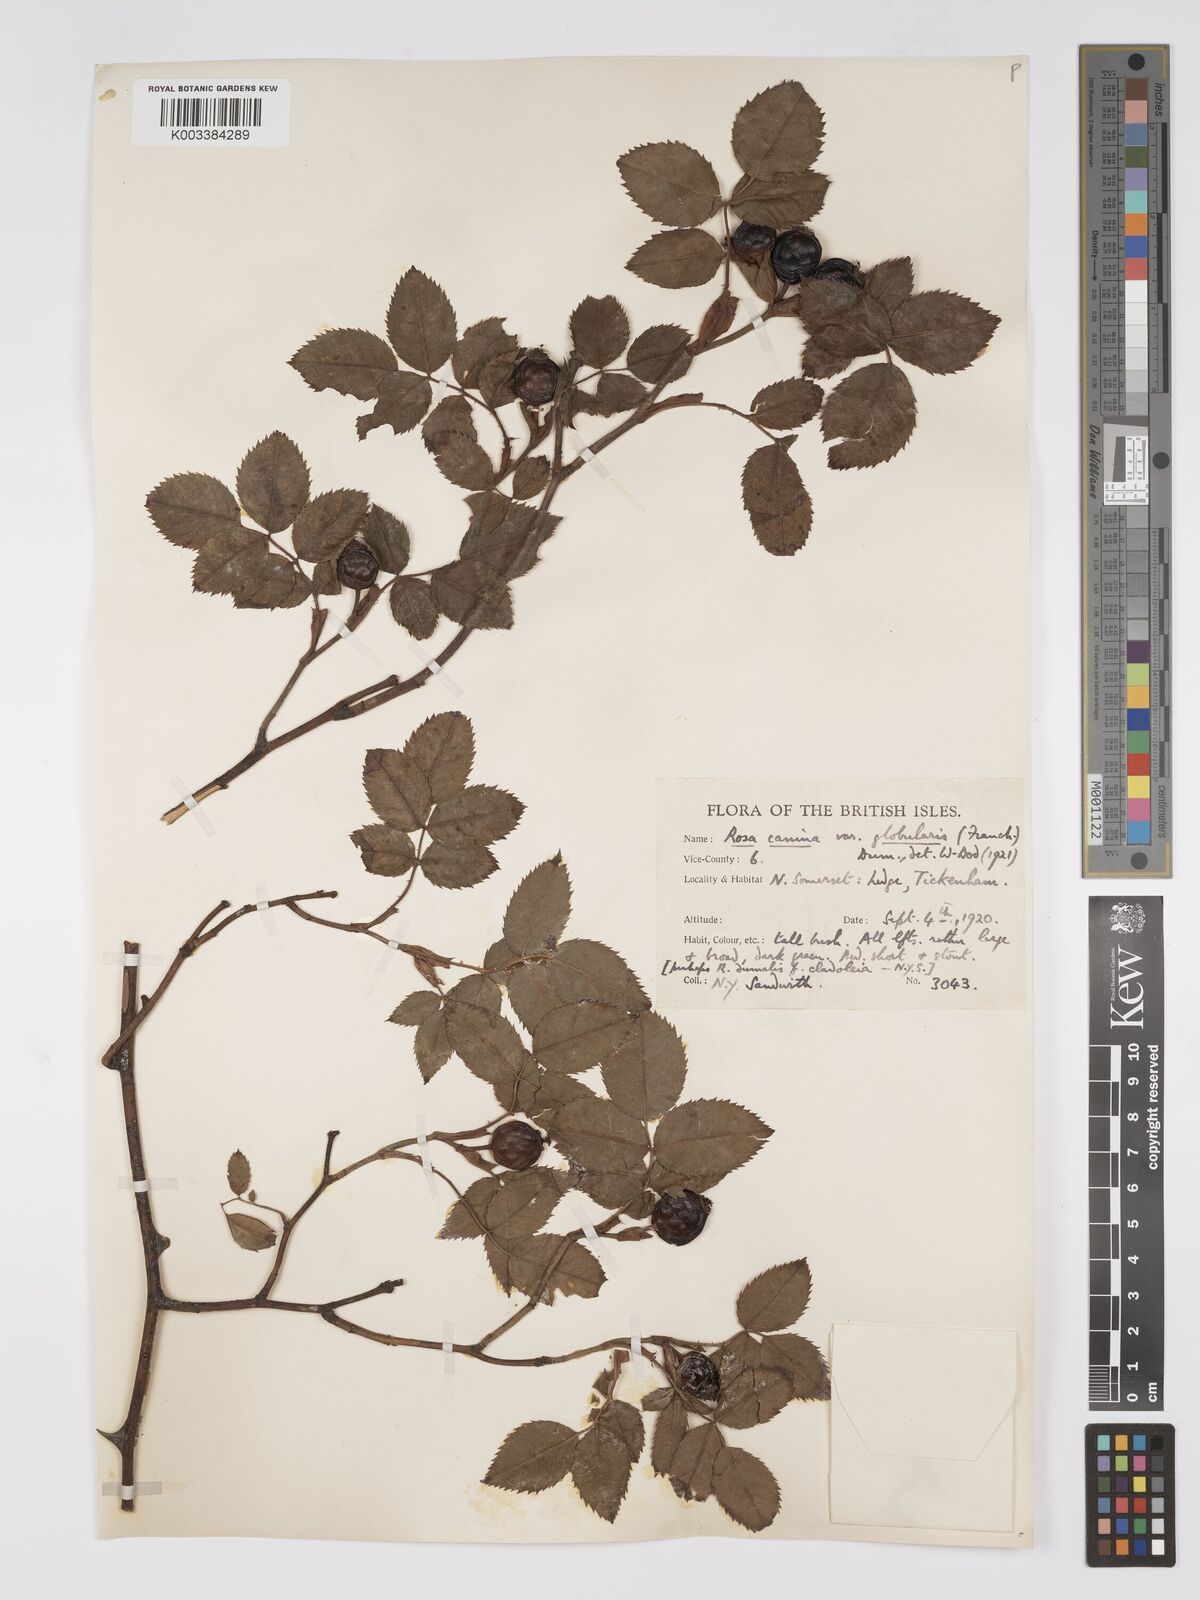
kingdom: Plantae
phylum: Tracheophyta
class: Magnoliopsida
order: Rosales
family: Rosaceae
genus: Rosa
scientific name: Rosa canina
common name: Dog rose
